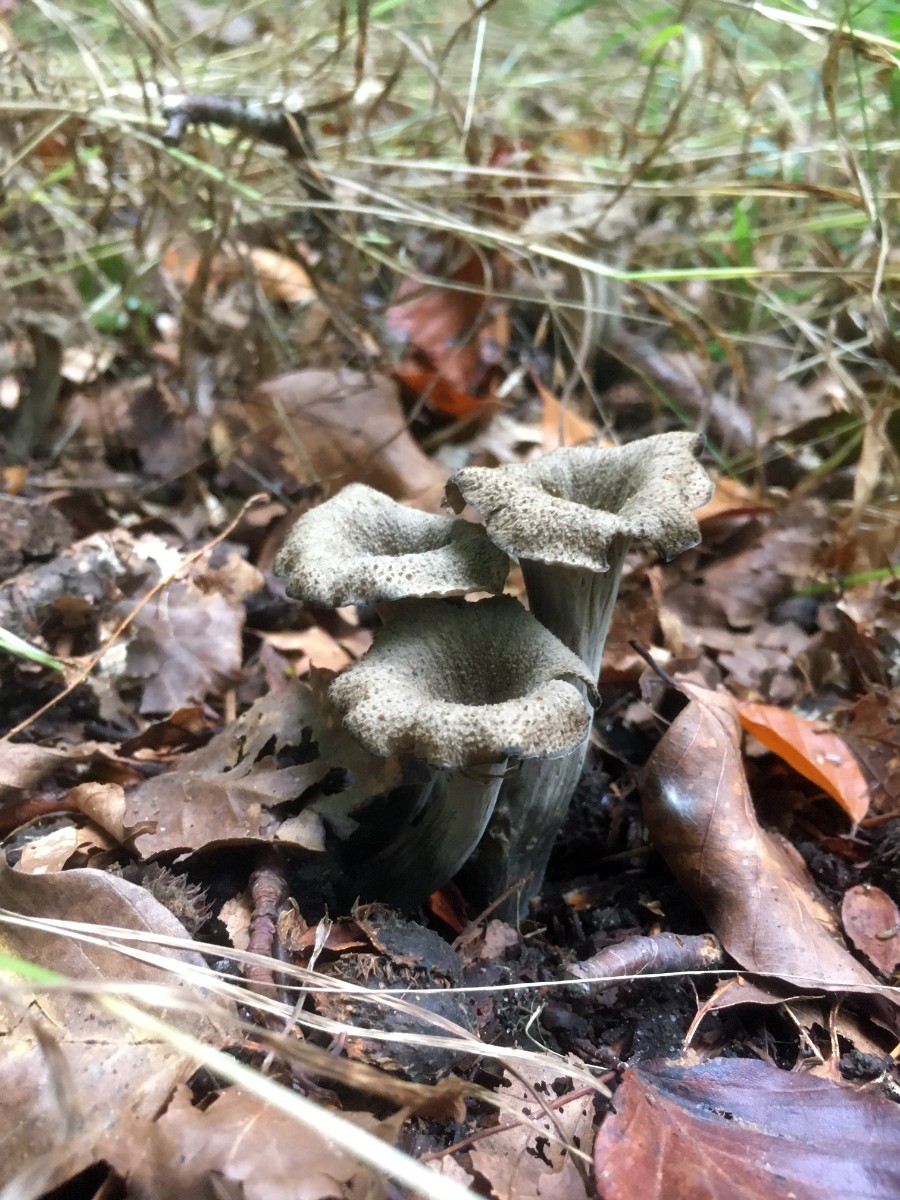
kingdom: Fungi
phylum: Basidiomycota
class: Agaricomycetes
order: Cantharellales
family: Hydnaceae
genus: Craterellus
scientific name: Craterellus cornucopioides
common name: trompetsvamp
